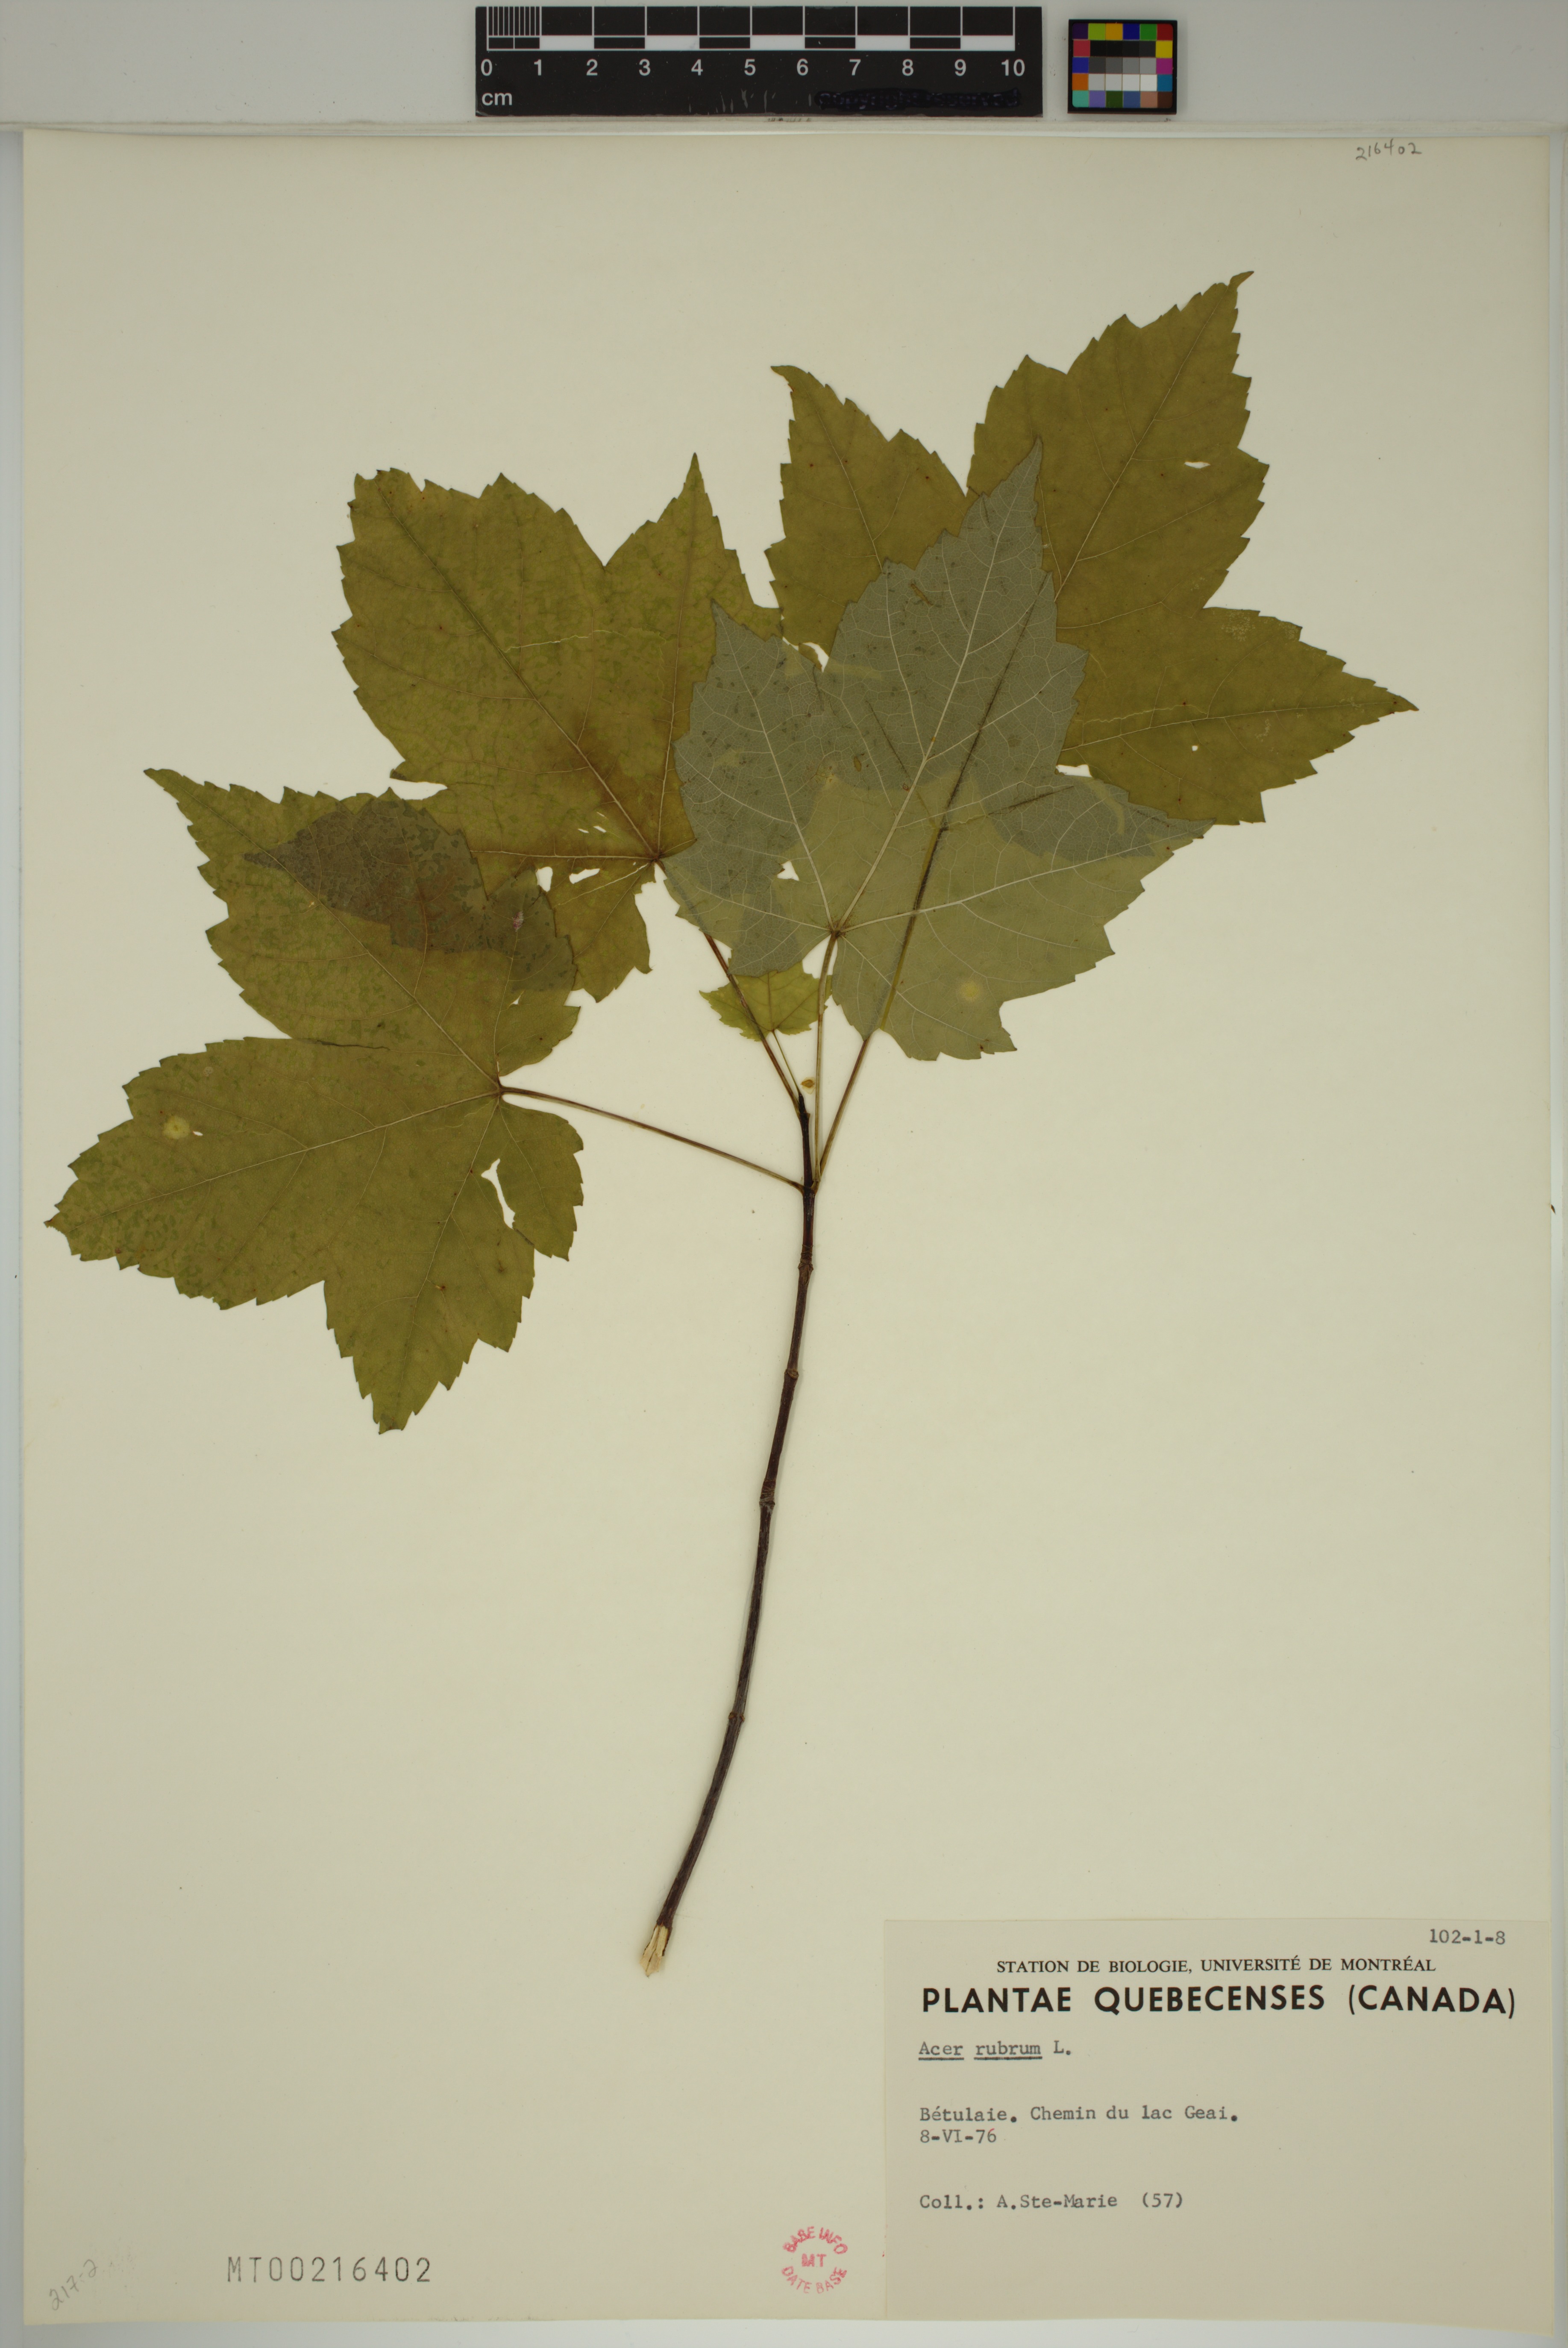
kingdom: Plantae
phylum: Tracheophyta
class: Magnoliopsida
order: Sapindales
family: Sapindaceae
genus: Acer
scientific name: Acer rubrum
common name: Red maple
